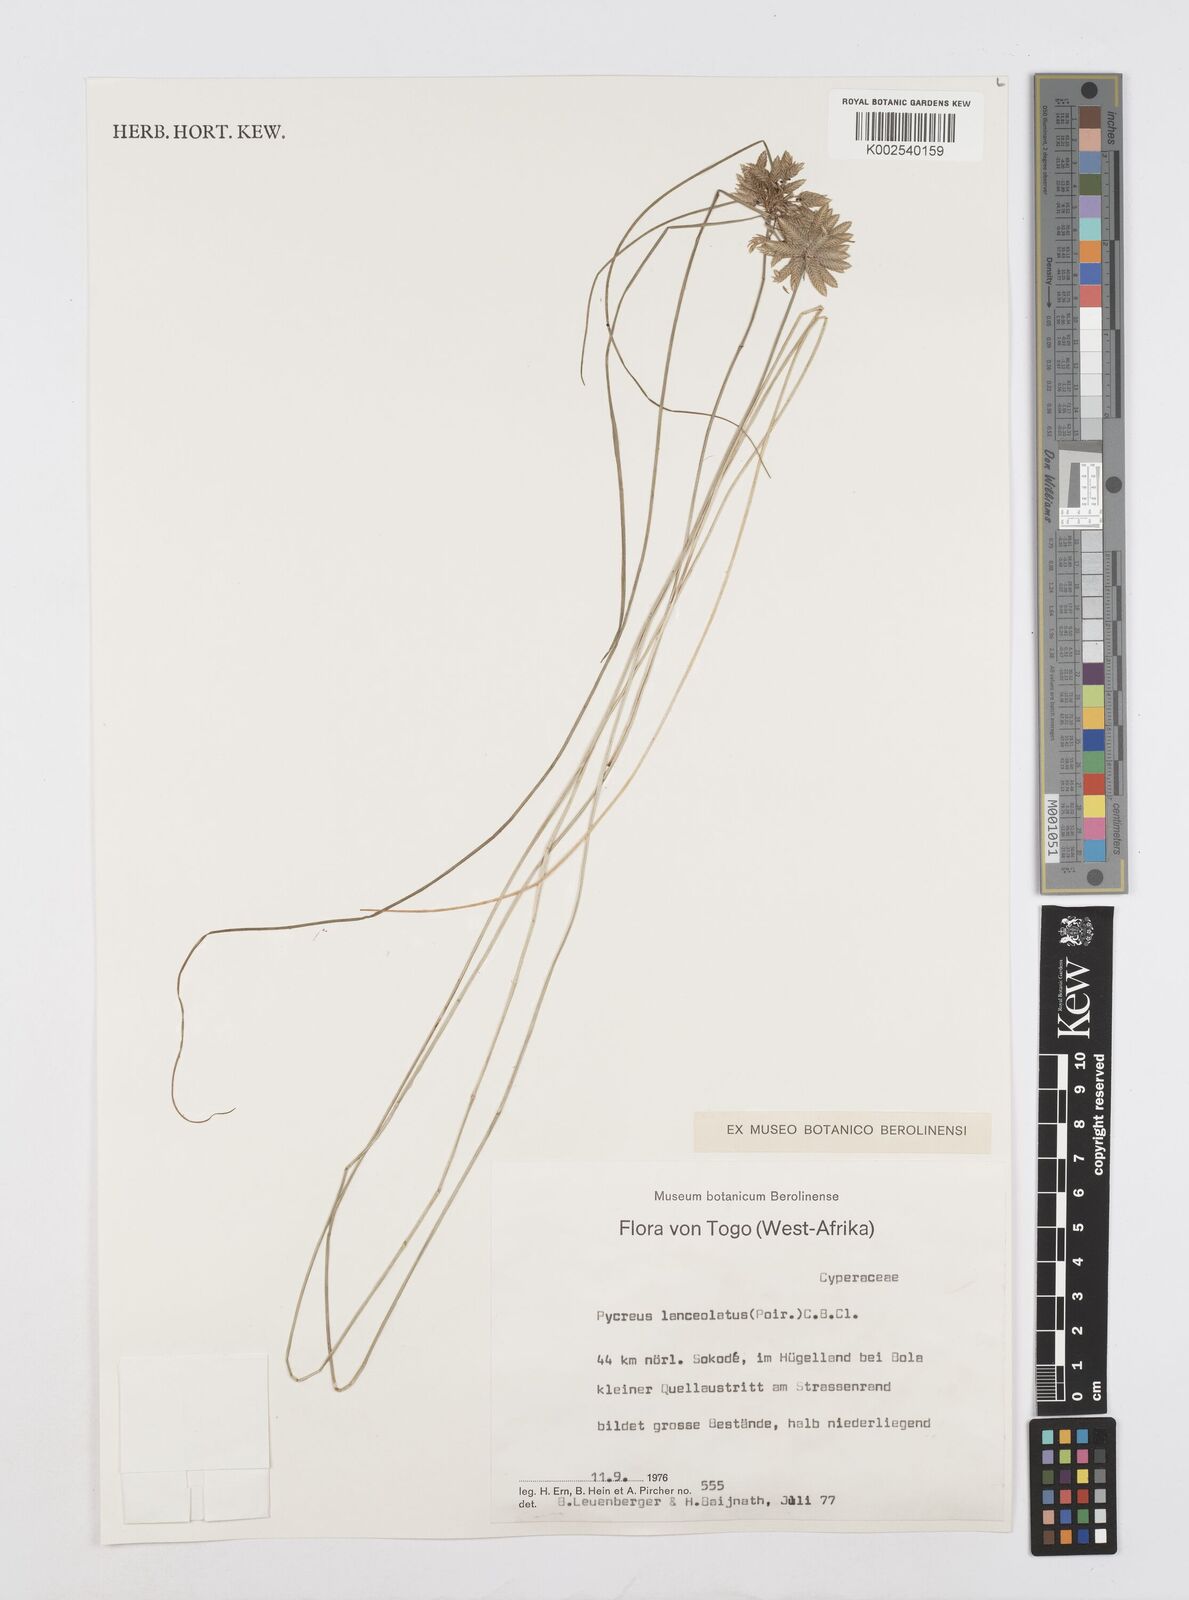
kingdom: Plantae
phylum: Tracheophyta
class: Liliopsida
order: Poales
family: Cyperaceae
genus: Cyperus
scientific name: Cyperus
